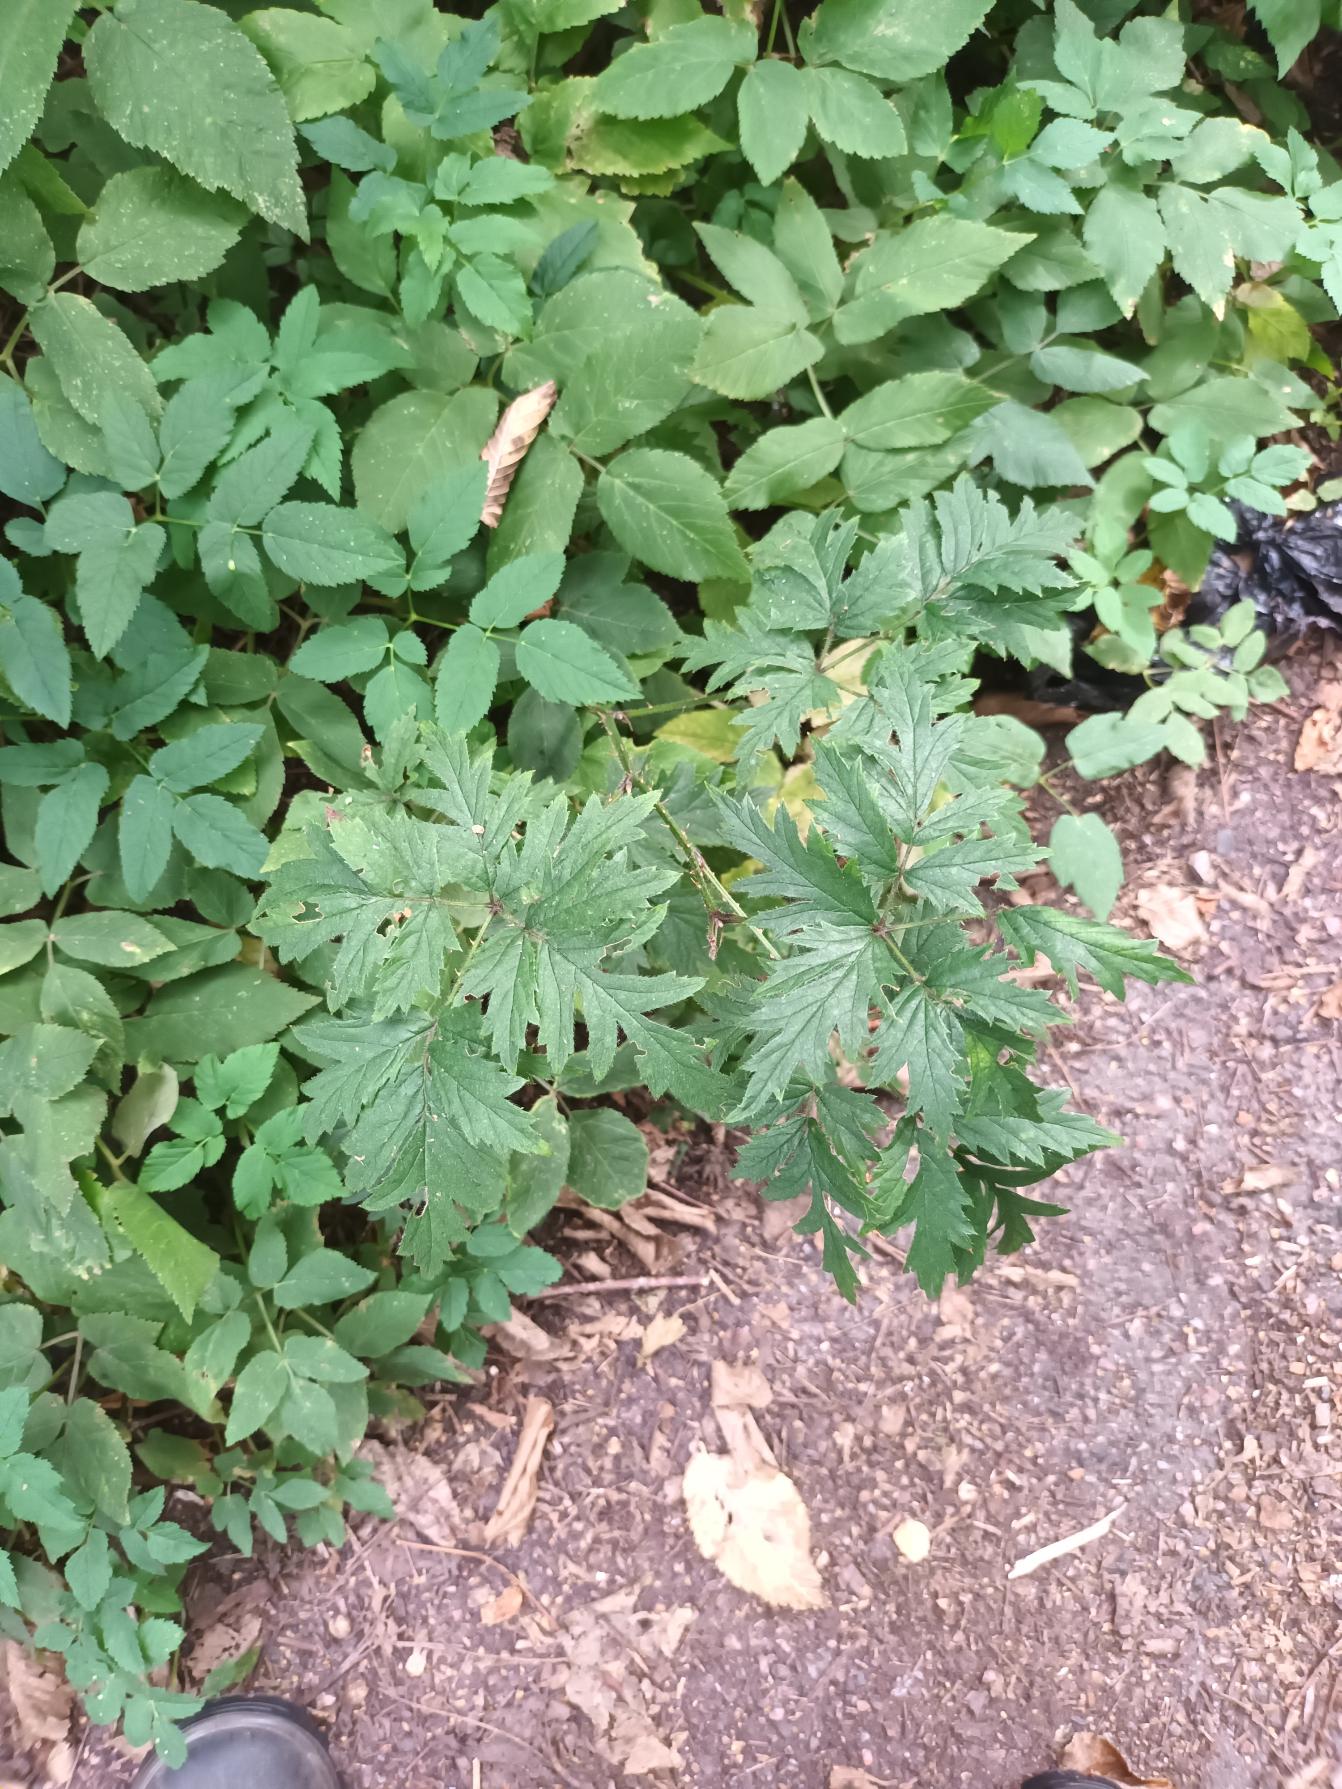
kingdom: Plantae
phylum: Tracheophyta
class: Magnoliopsida
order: Rosales
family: Rosaceae
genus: Rubus
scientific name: Rubus laciniatus
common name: Fliget brombær
